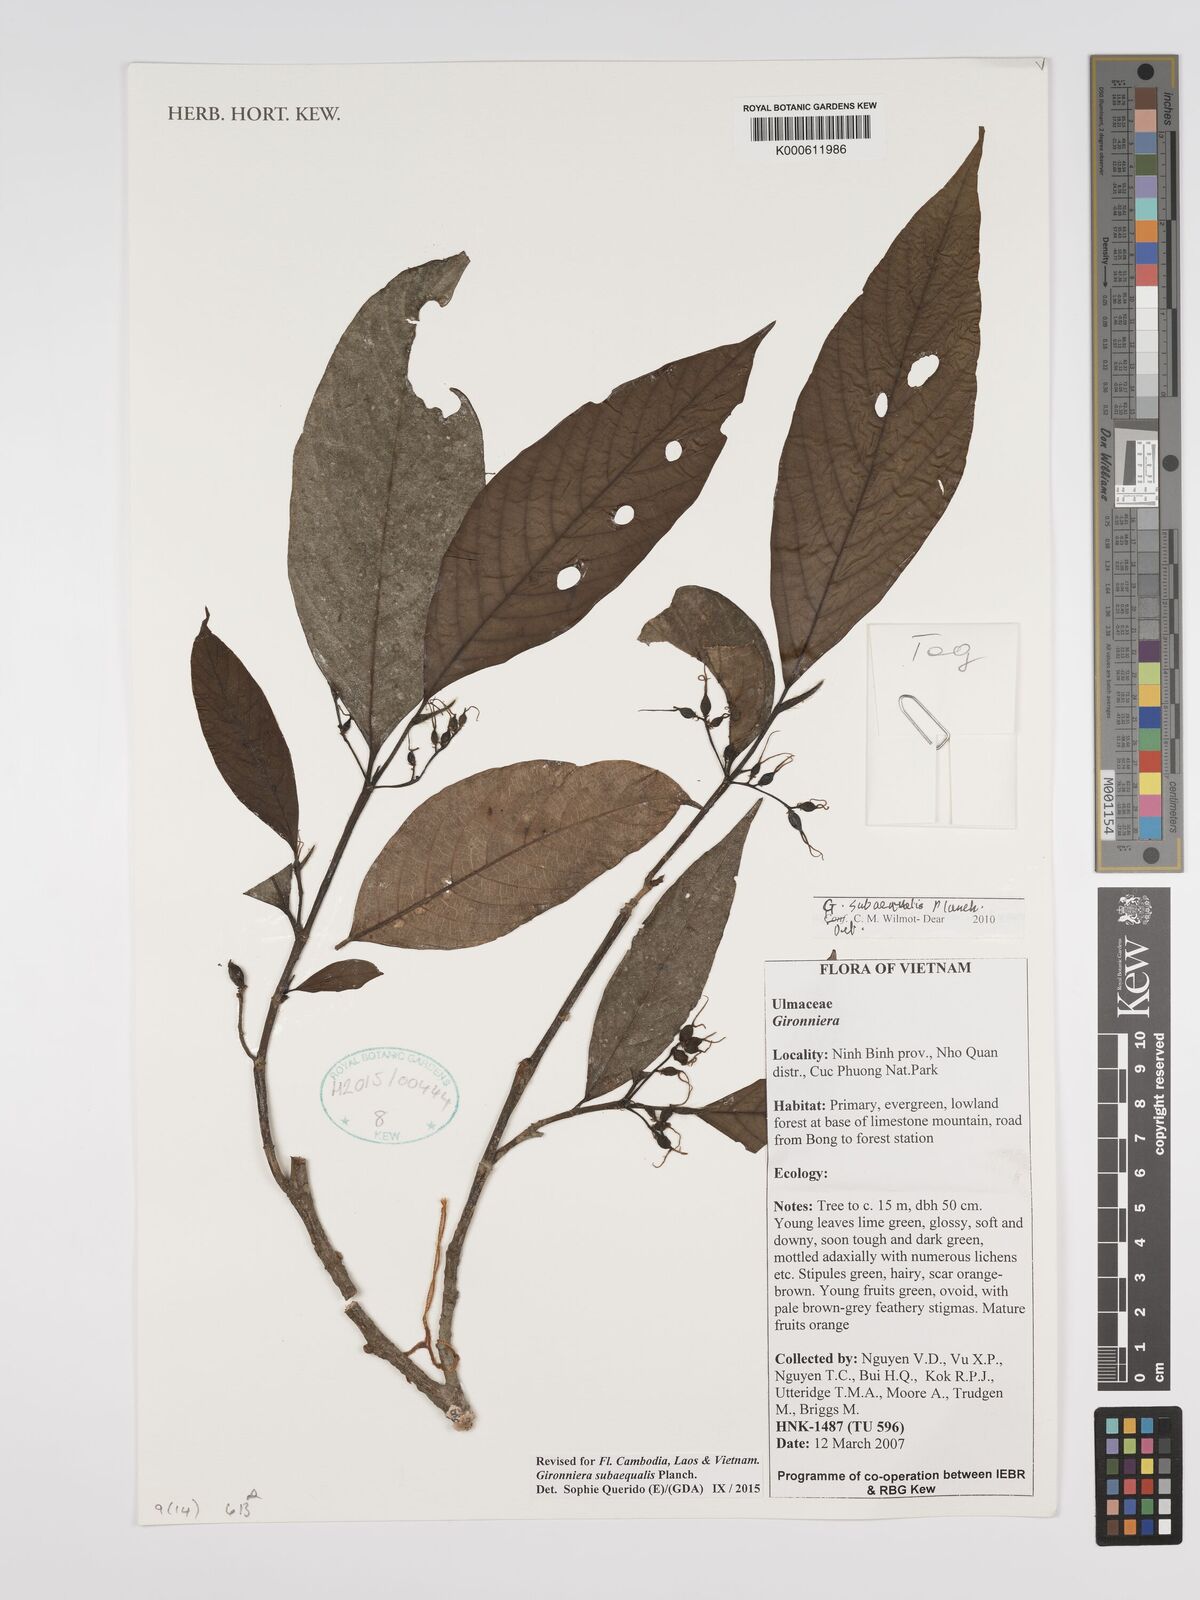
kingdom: Plantae
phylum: Tracheophyta
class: Magnoliopsida
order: Rosales
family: Cannabaceae
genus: Gironniera
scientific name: Gironniera subaequalis
